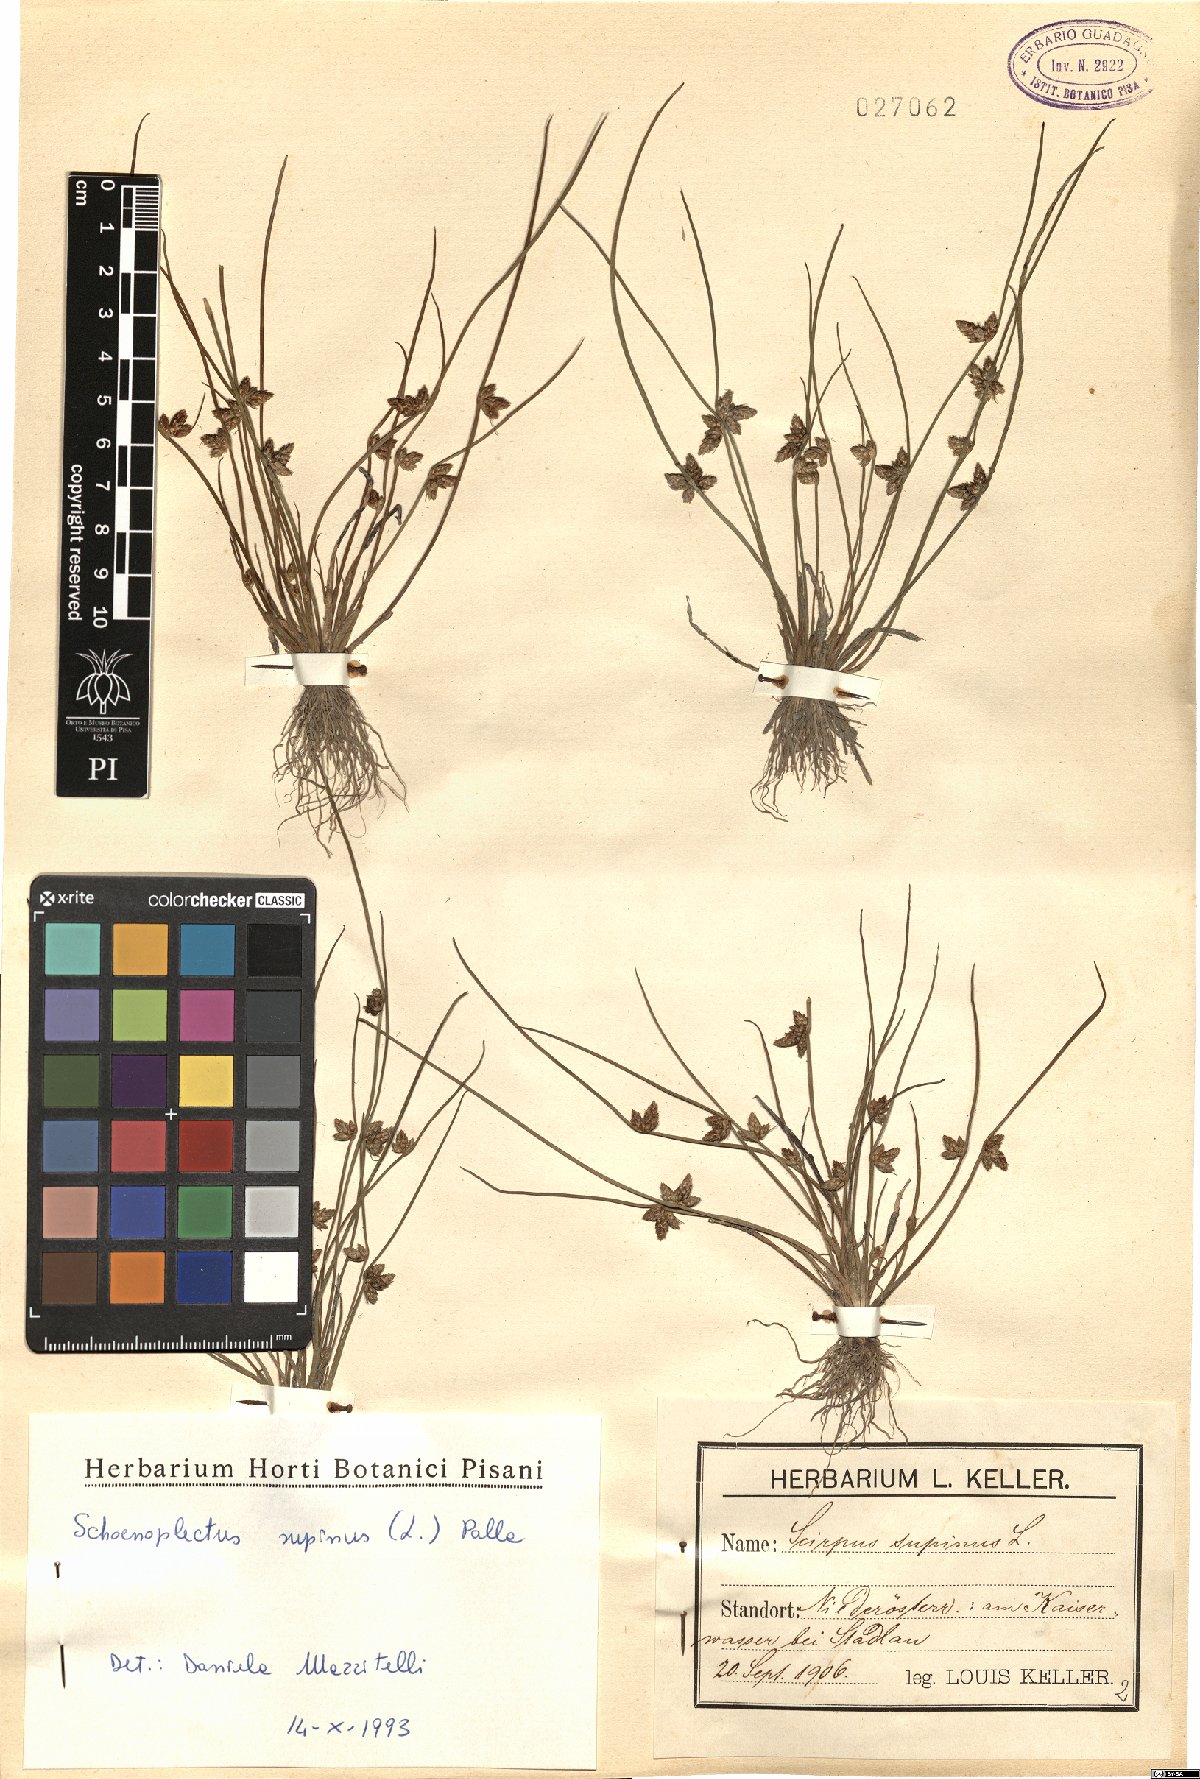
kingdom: Plantae
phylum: Tracheophyta
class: Liliopsida
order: Poales
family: Cyperaceae
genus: Schoenoplectiella
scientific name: Schoenoplectiella supina
